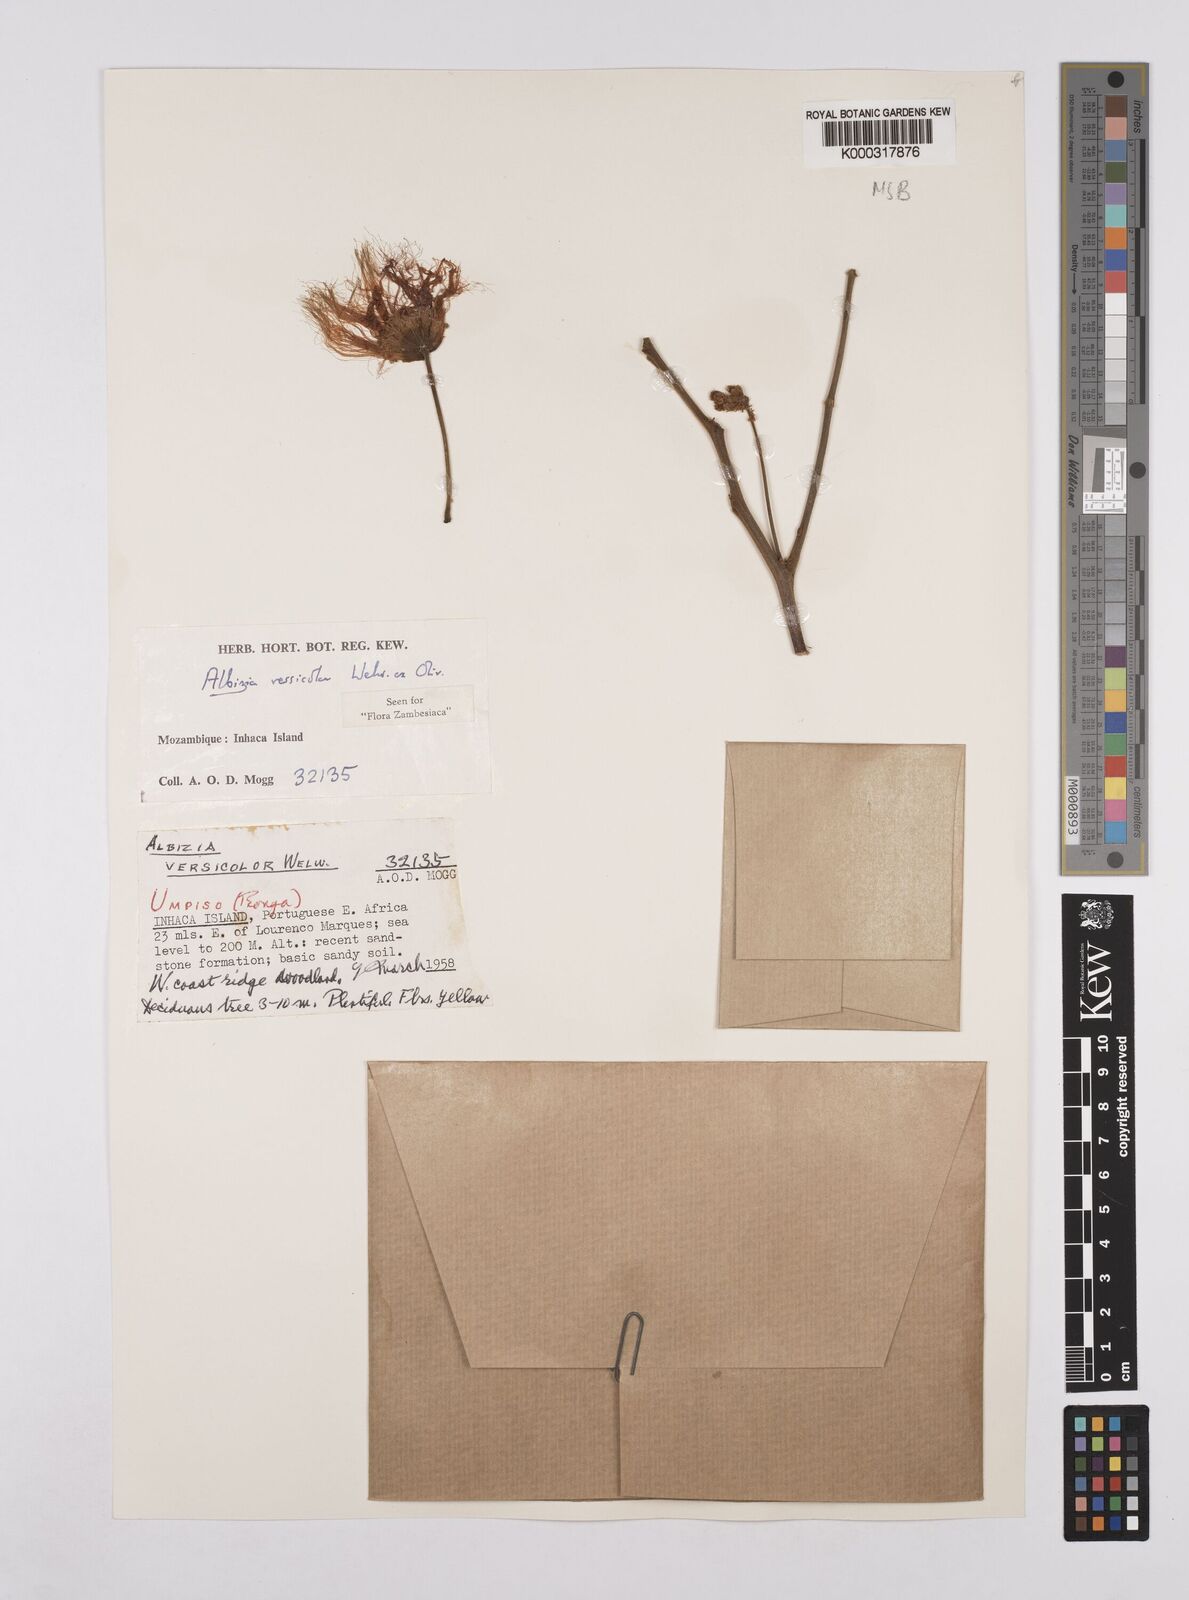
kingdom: Plantae
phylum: Tracheophyta
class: Magnoliopsida
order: Fabales
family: Fabaceae
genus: Albizia
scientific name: Albizia versicolor
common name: Poisonpod
